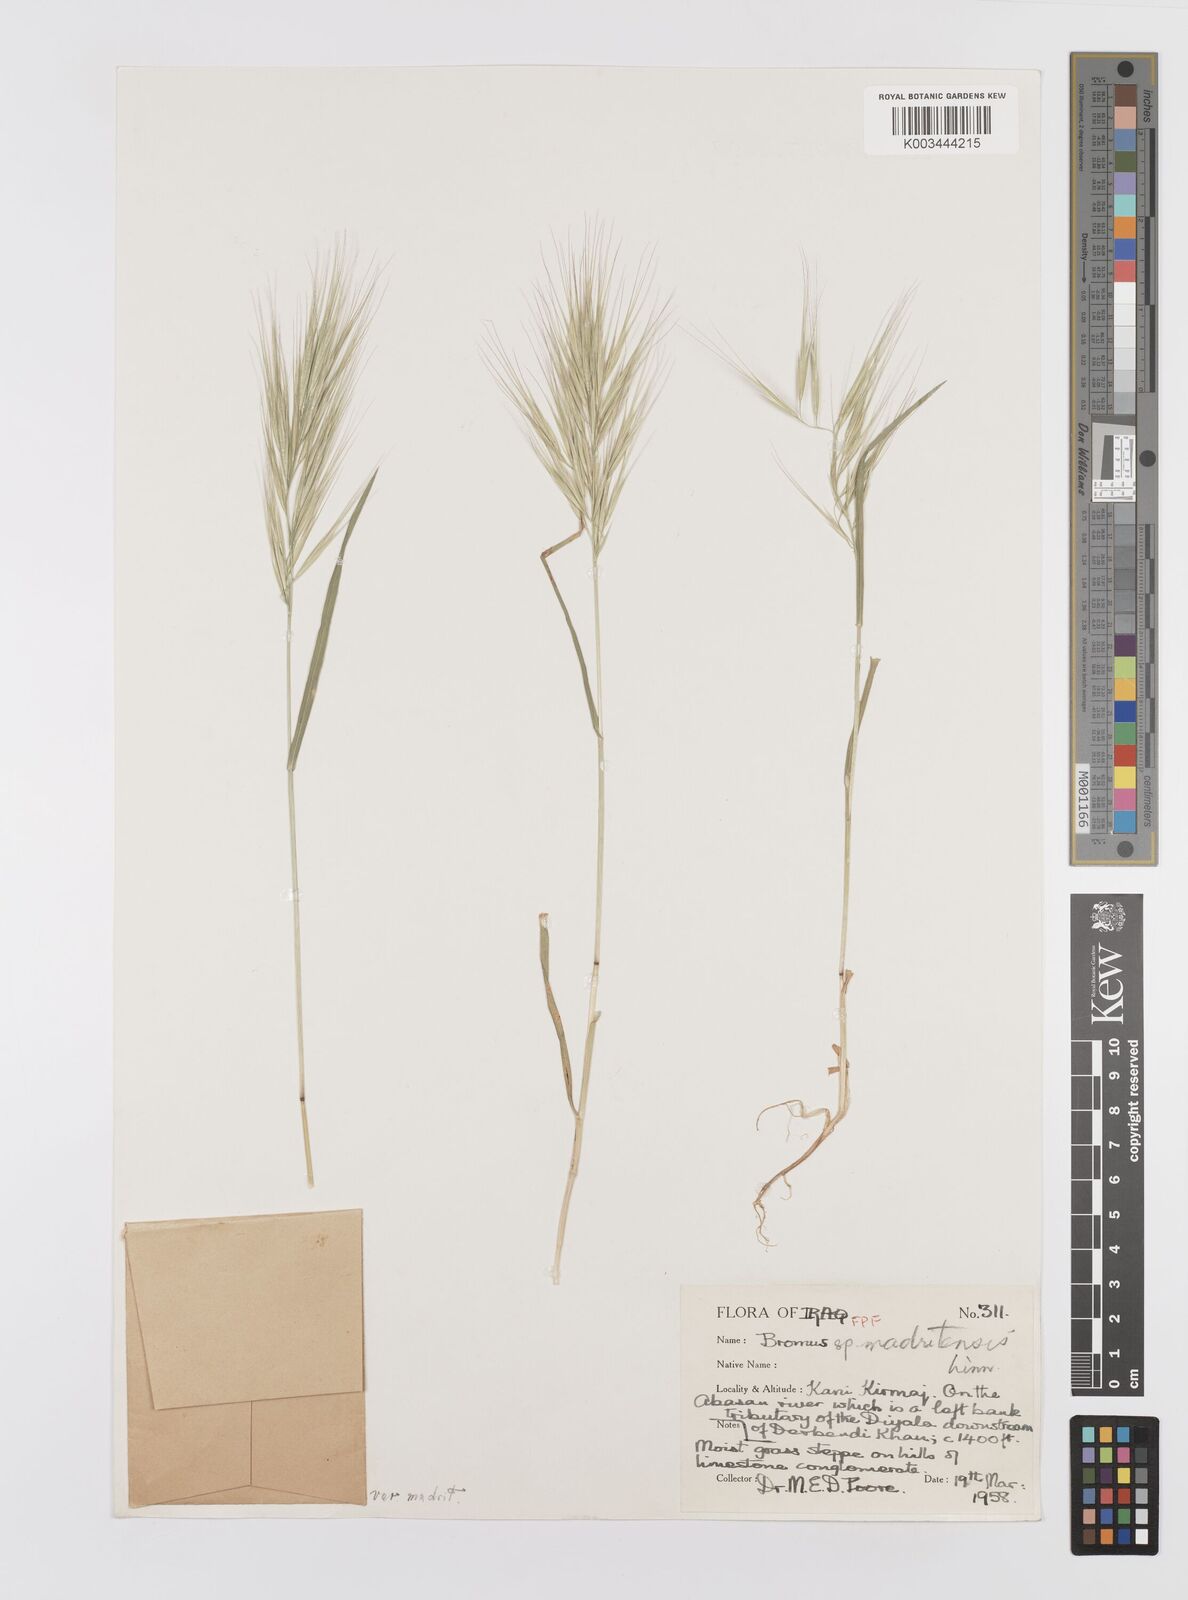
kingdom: Plantae
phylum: Tracheophyta
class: Liliopsida
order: Poales
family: Poaceae
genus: Bromus
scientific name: Bromus madritensis
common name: Compact brome
